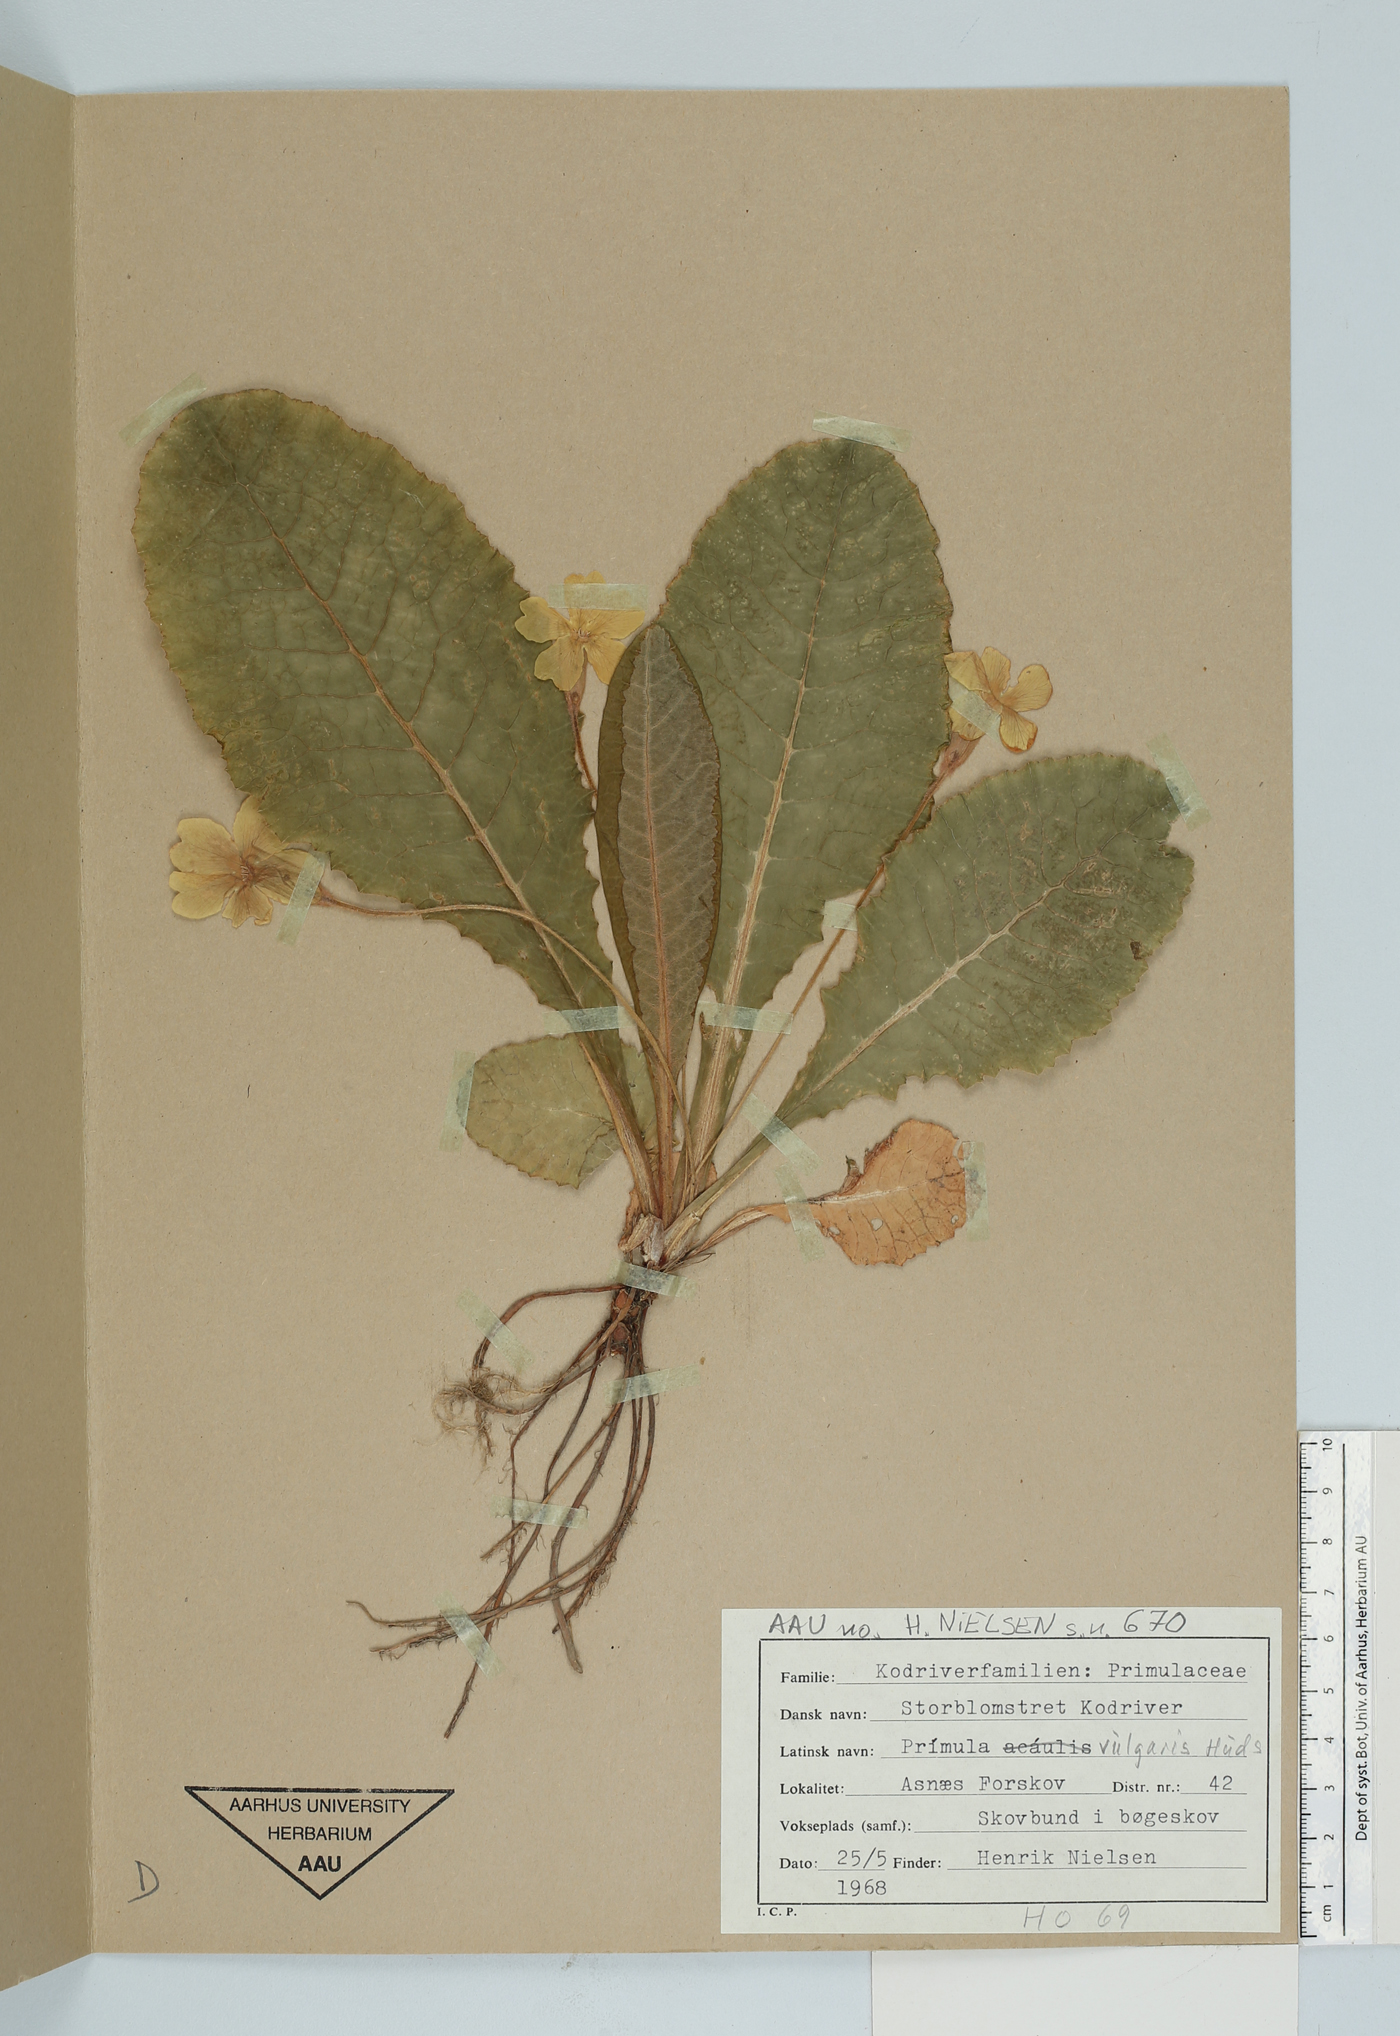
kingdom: Plantae
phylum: Tracheophyta
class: Magnoliopsida
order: Ericales
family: Primulaceae
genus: Primula
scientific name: Primula vulgaris
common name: Primrose
